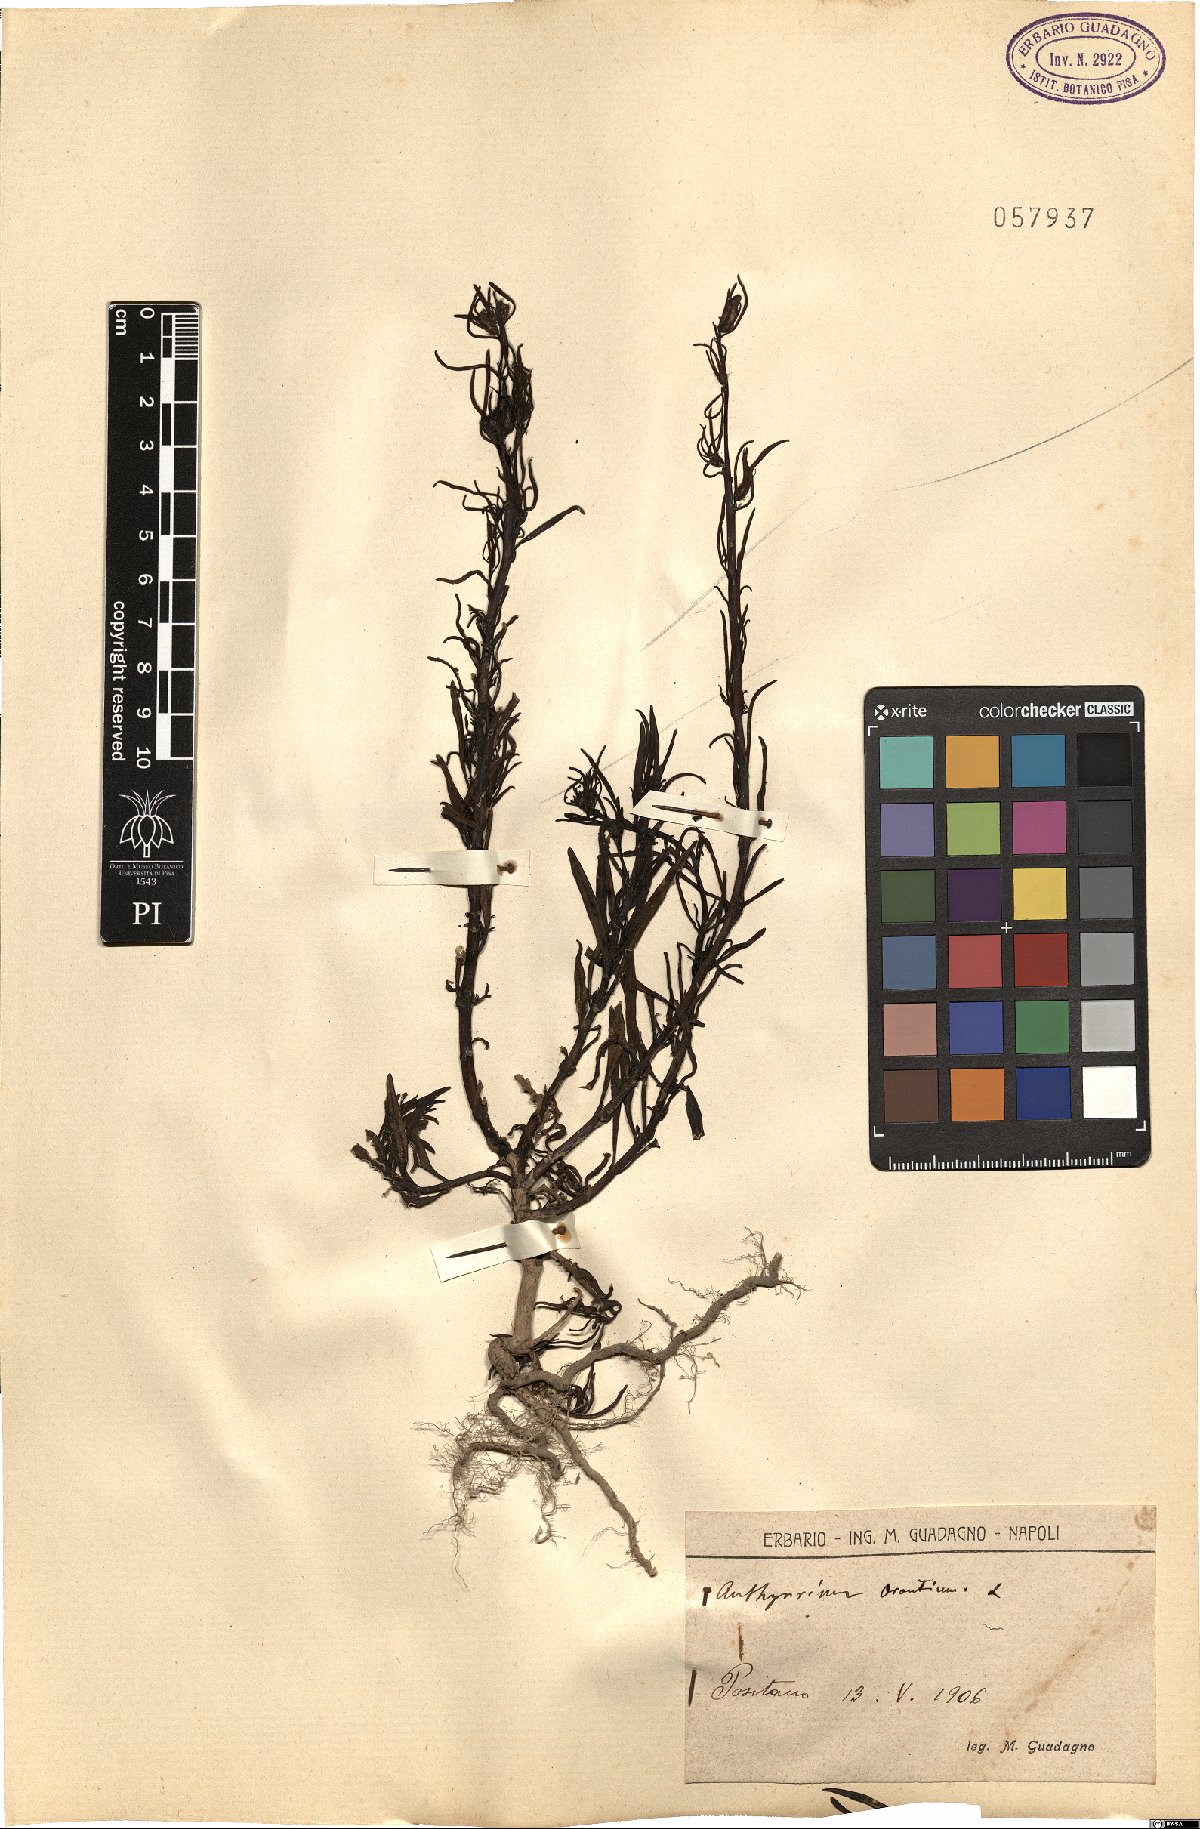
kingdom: Plantae
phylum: Tracheophyta
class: Magnoliopsida
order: Lamiales
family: Plantaginaceae
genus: Misopates
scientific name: Misopates orontium
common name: Weasel's-snout
